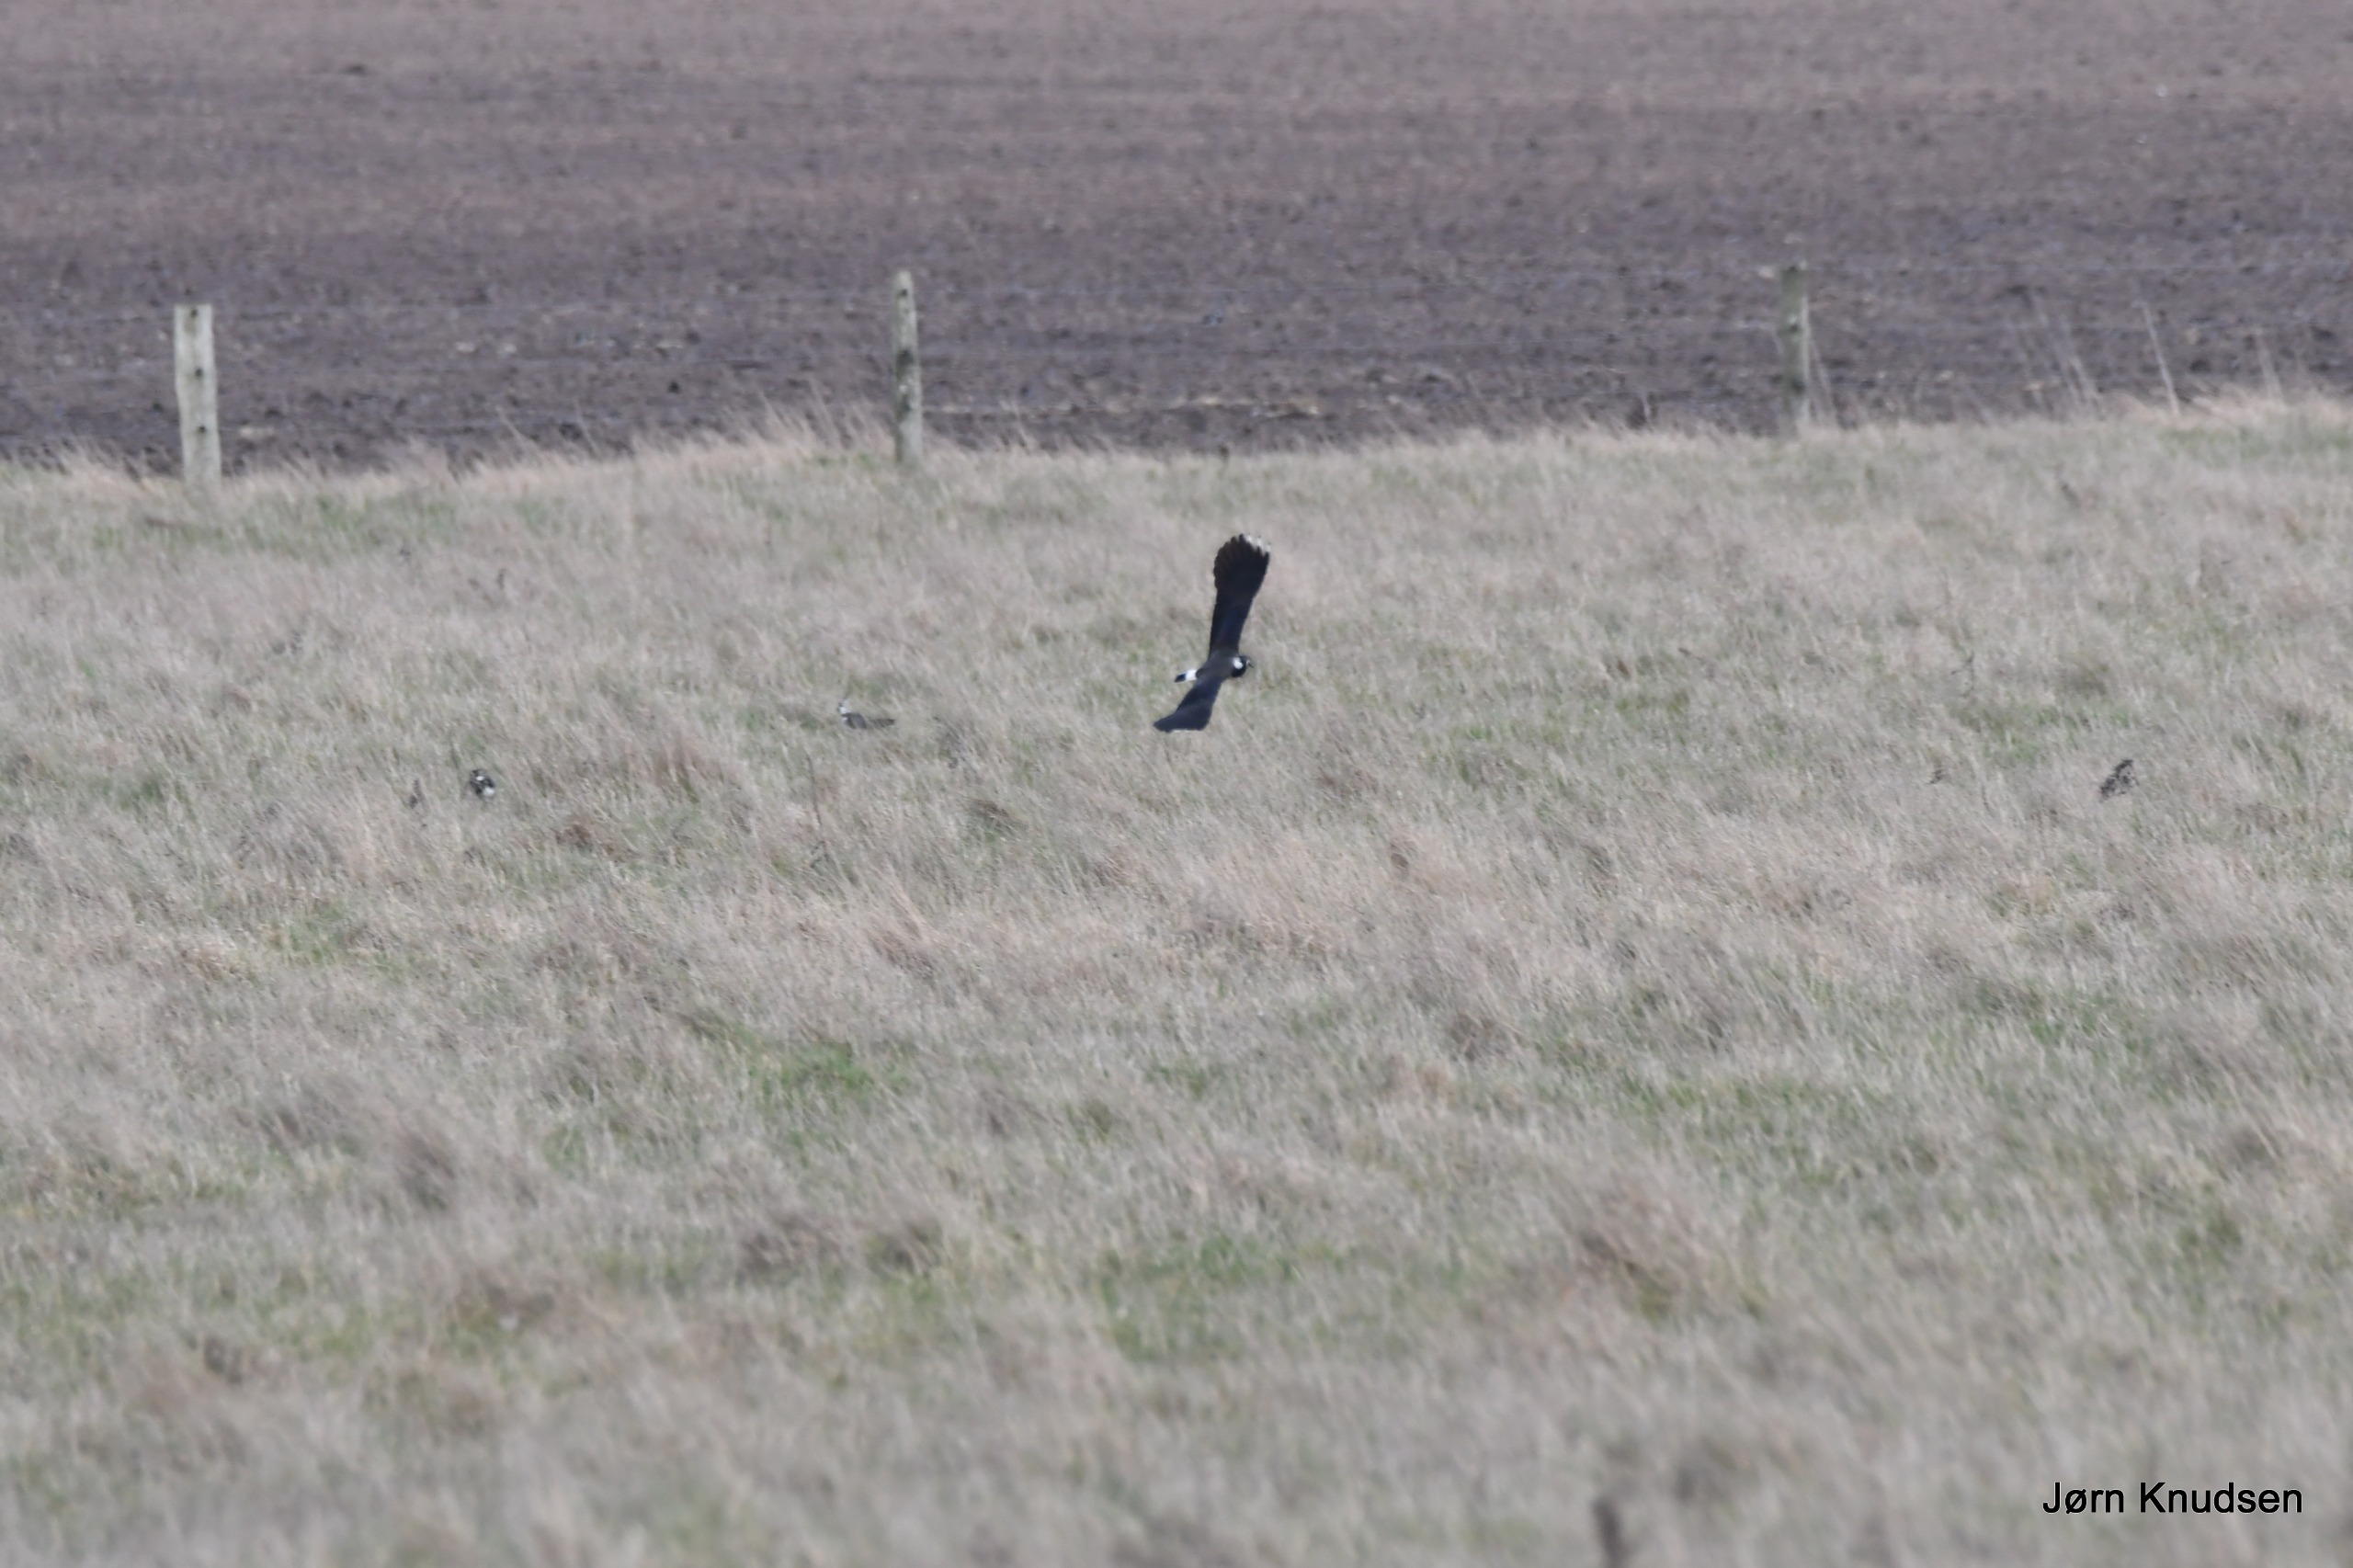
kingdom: Animalia
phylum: Chordata
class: Aves
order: Charadriiformes
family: Charadriidae
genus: Vanellus
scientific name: Vanellus vanellus
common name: Vibe
